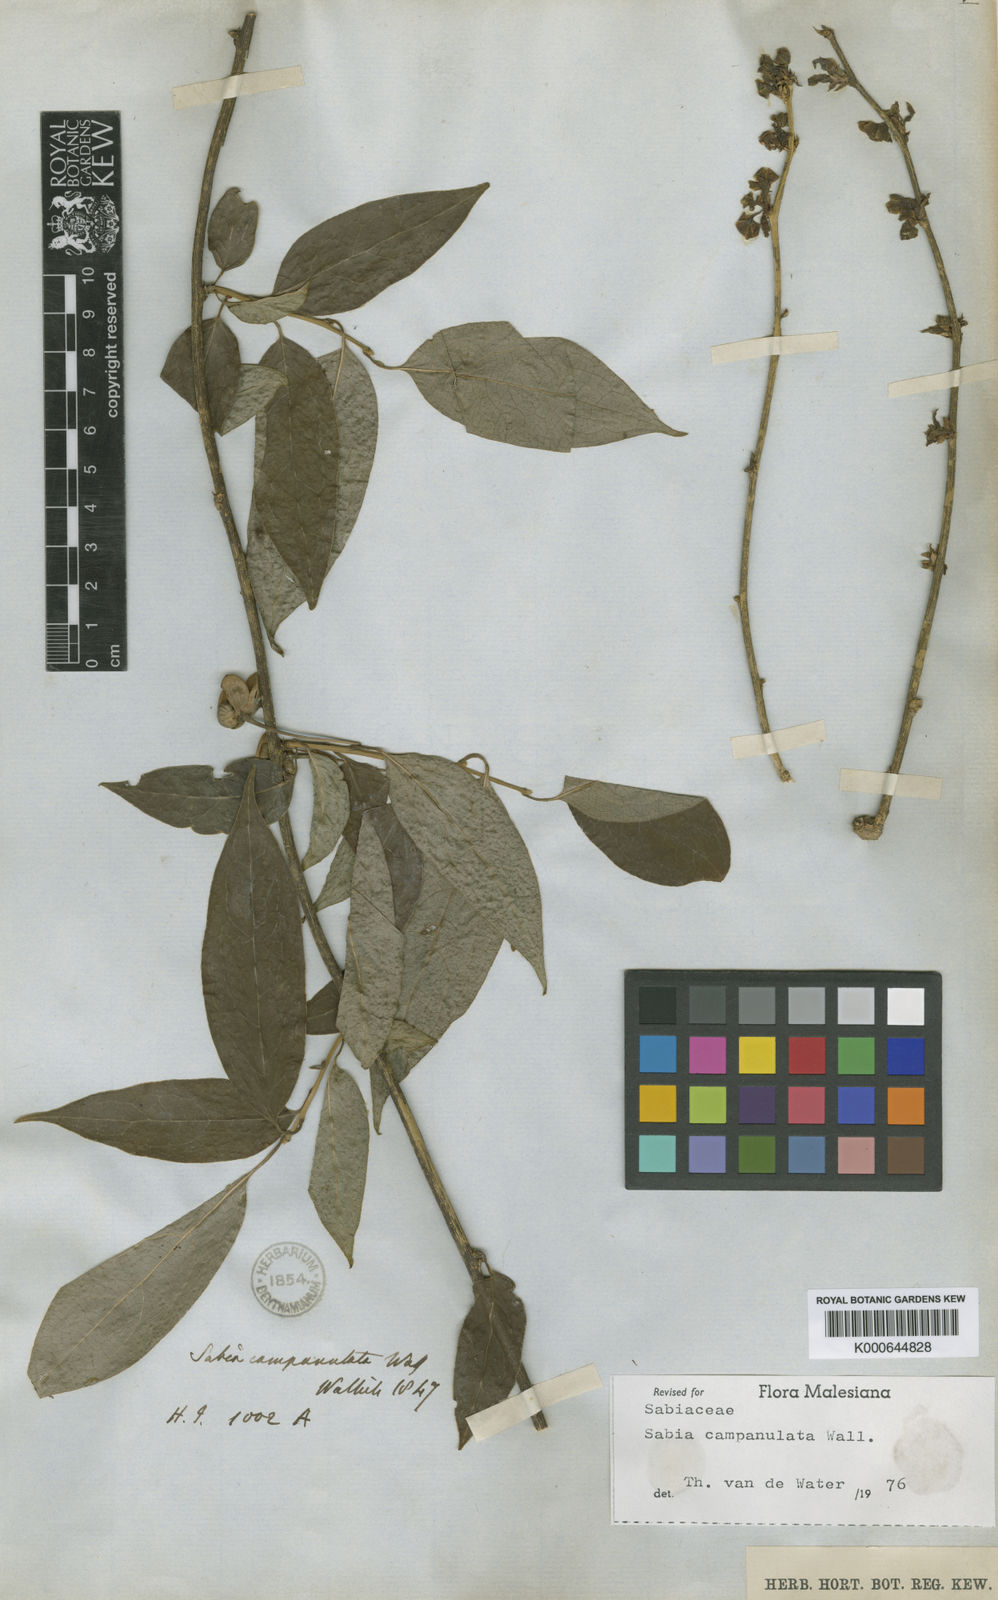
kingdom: Plantae
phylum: Tracheophyta
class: Magnoliopsida
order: Proteales
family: Sabiaceae
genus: Sabia
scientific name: Sabia campanulata
